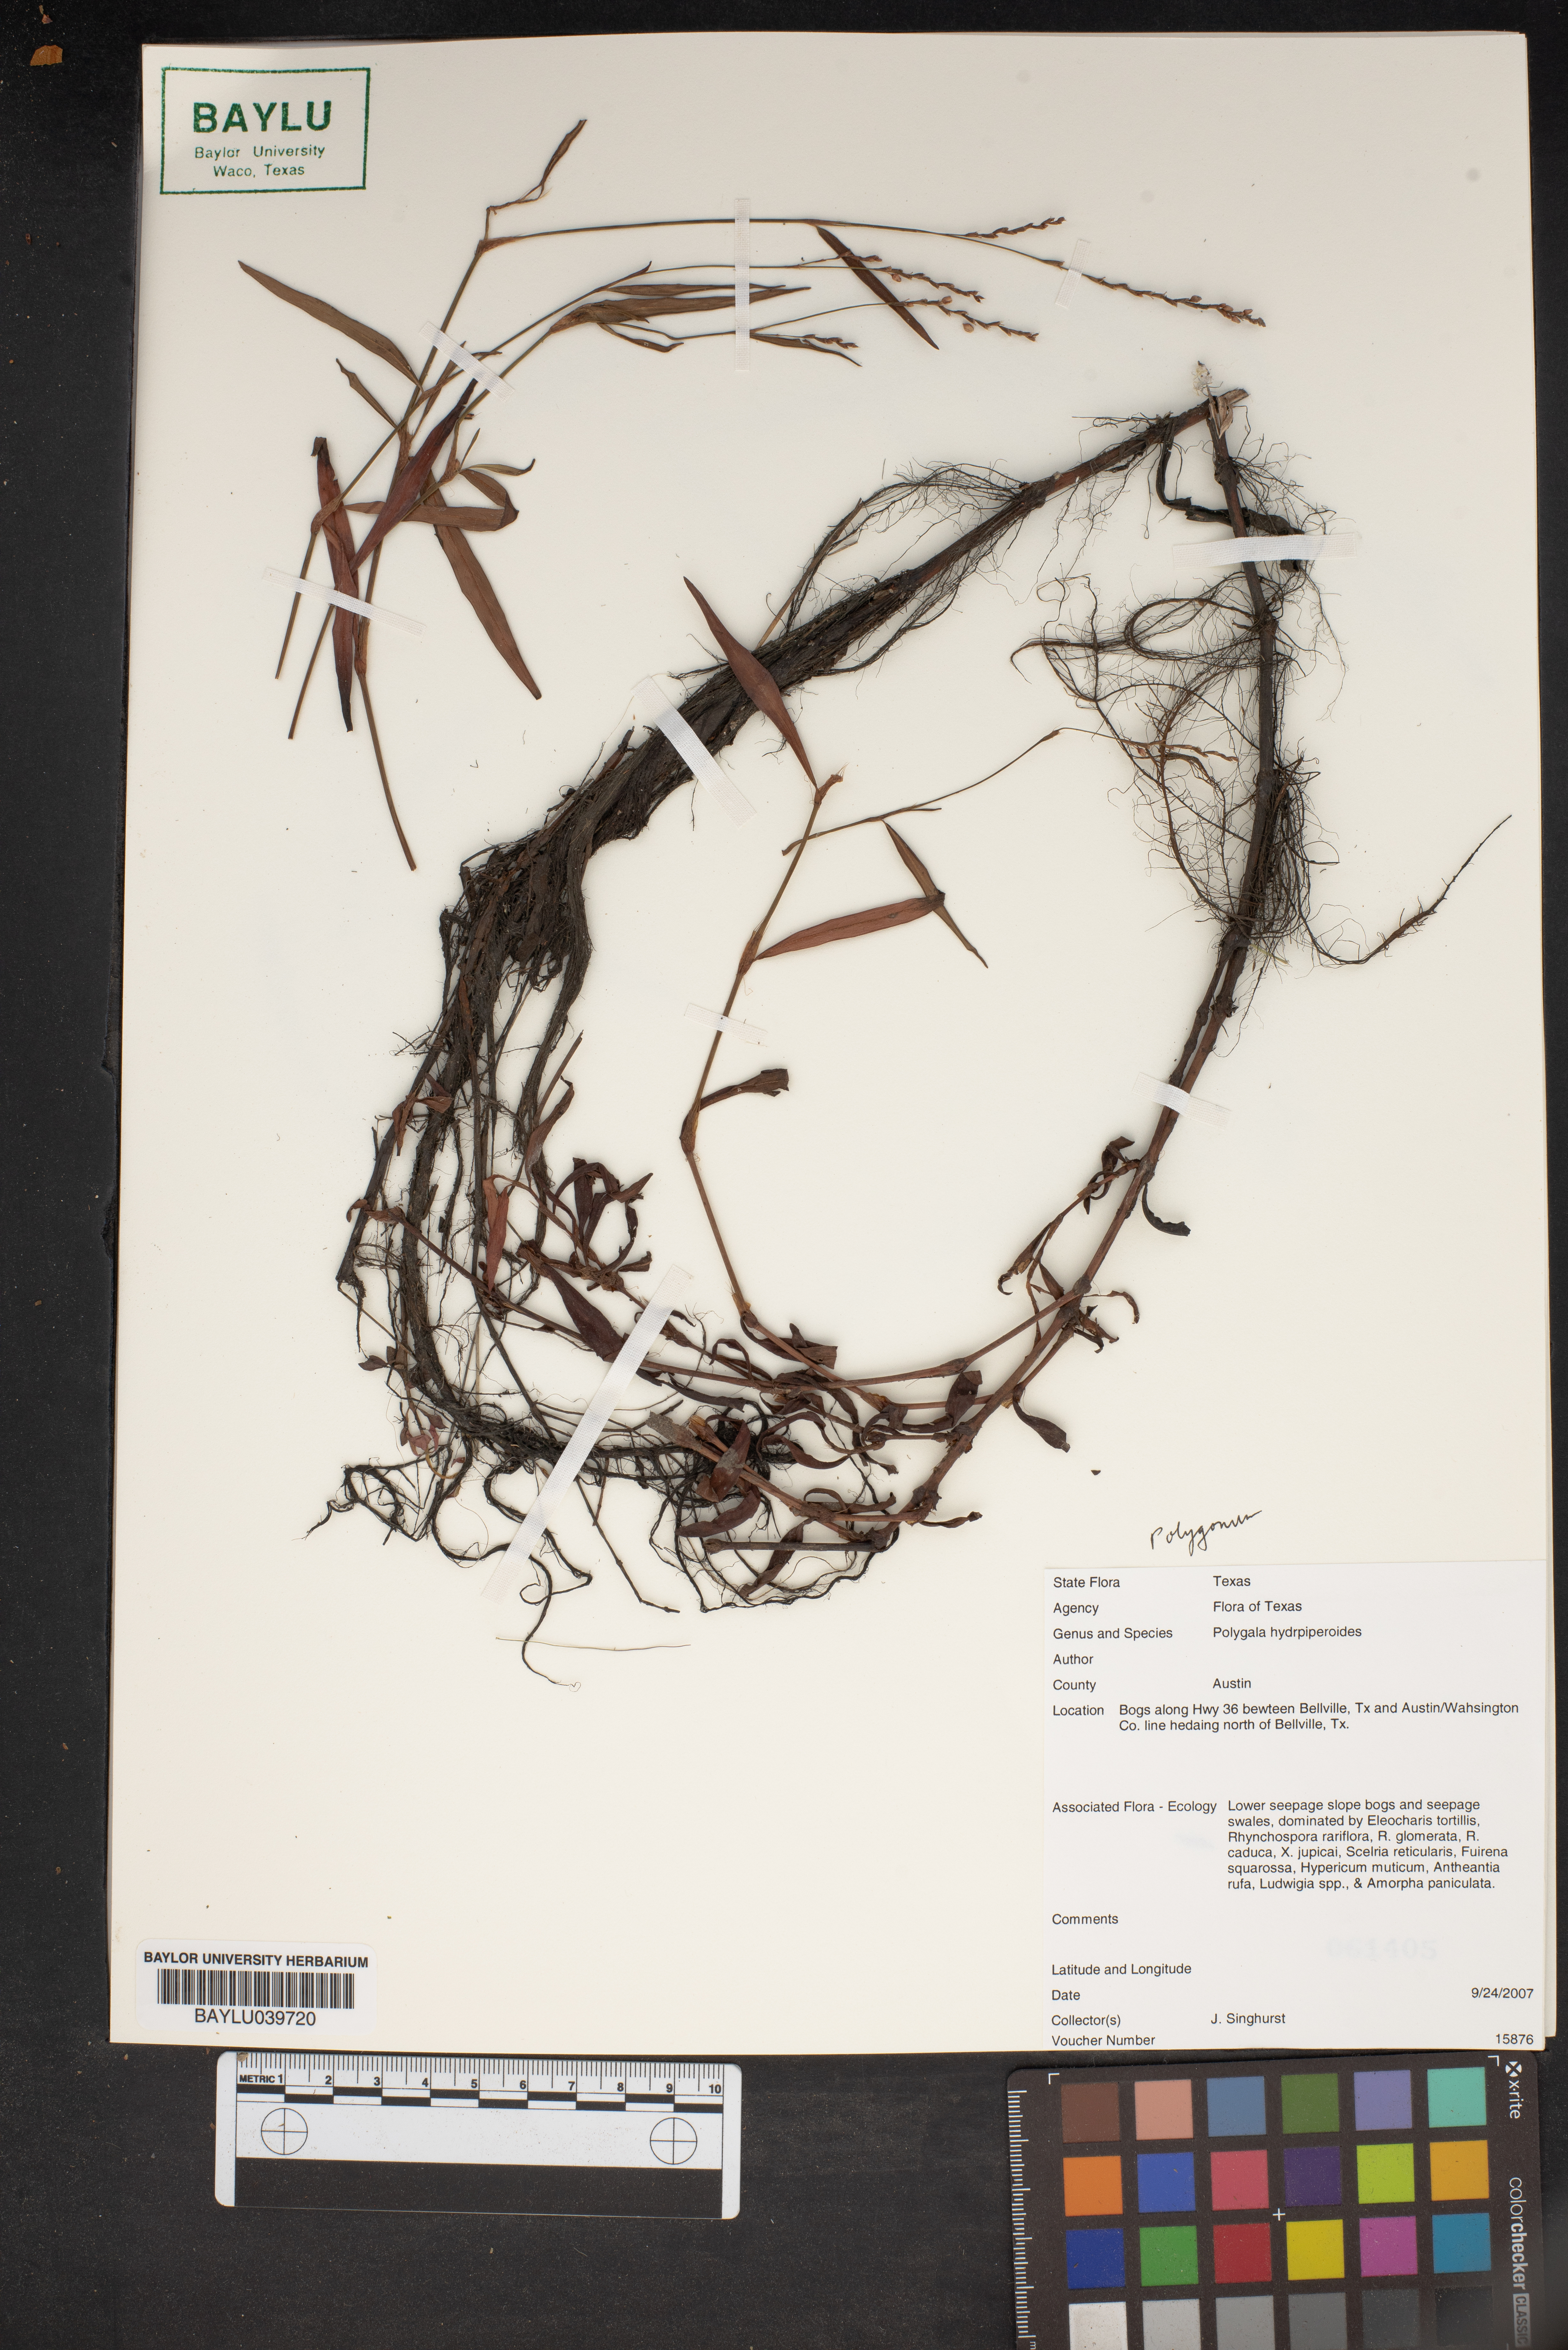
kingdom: Plantae
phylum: Tracheophyta
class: Magnoliopsida
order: Fabales
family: Polygalaceae
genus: Polygala
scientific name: Polygala
